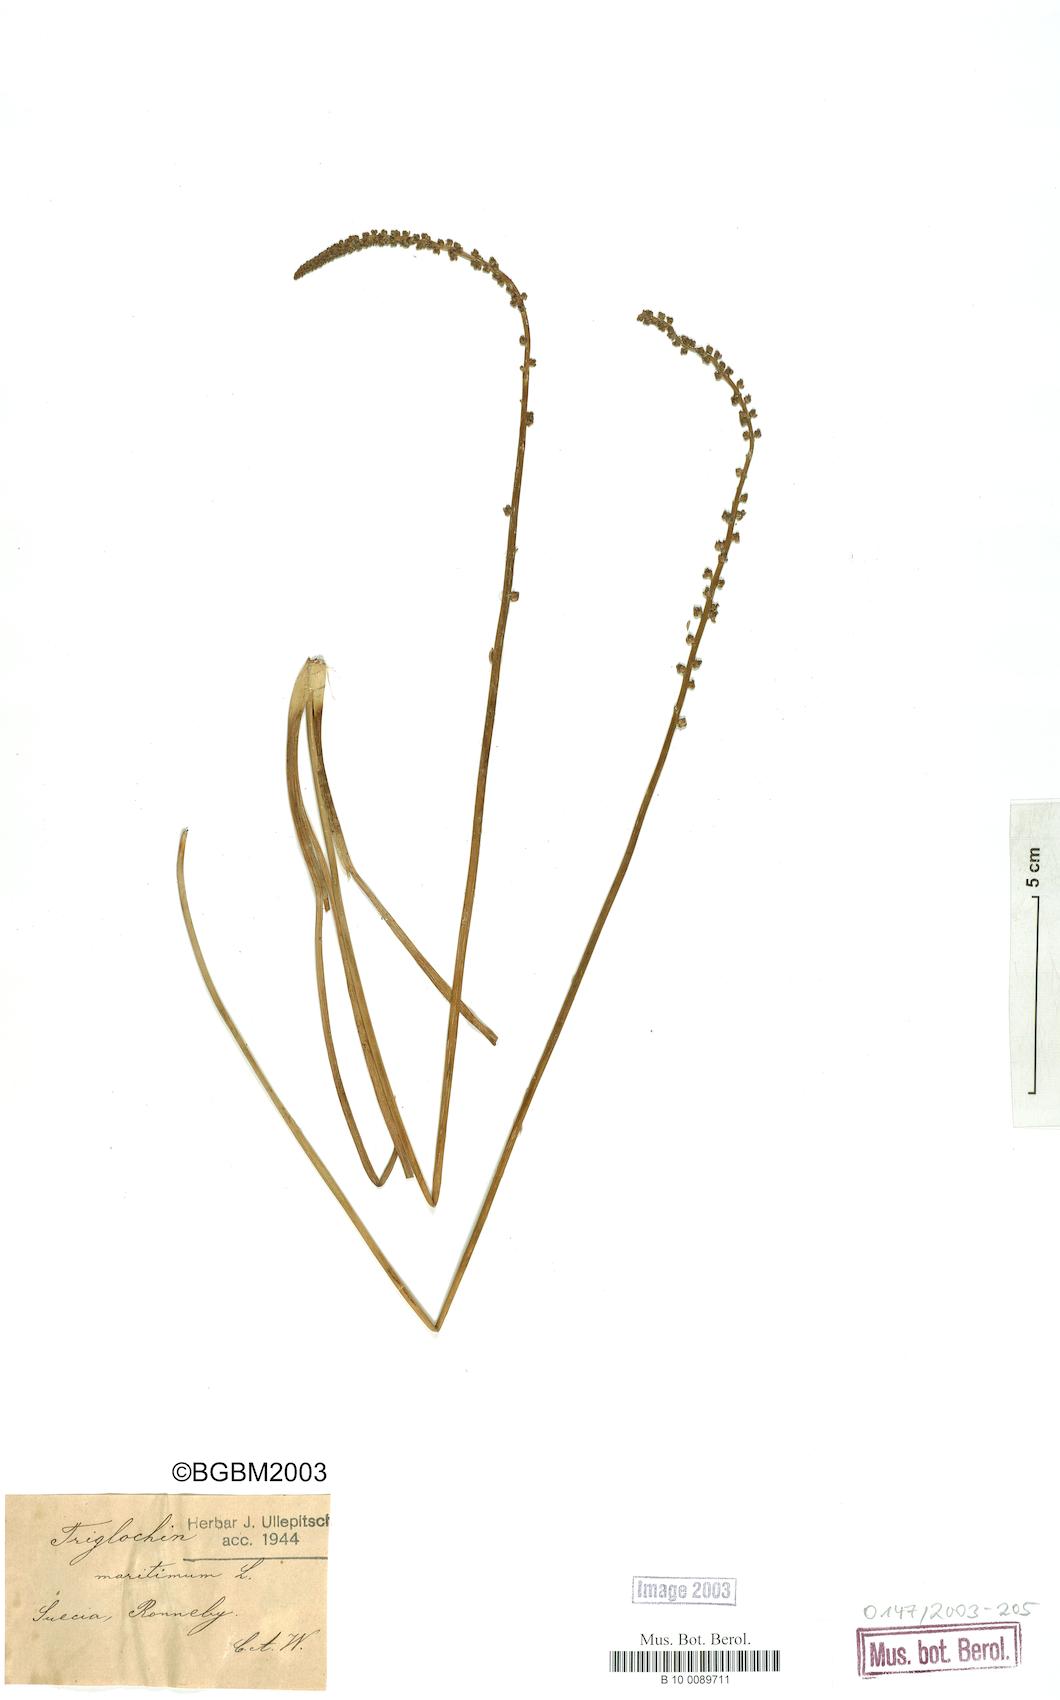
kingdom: Plantae
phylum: Tracheophyta
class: Liliopsida
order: Alismatales
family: Juncaginaceae
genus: Triglochin
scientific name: Triglochin maritima
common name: Sea arrowgrass
